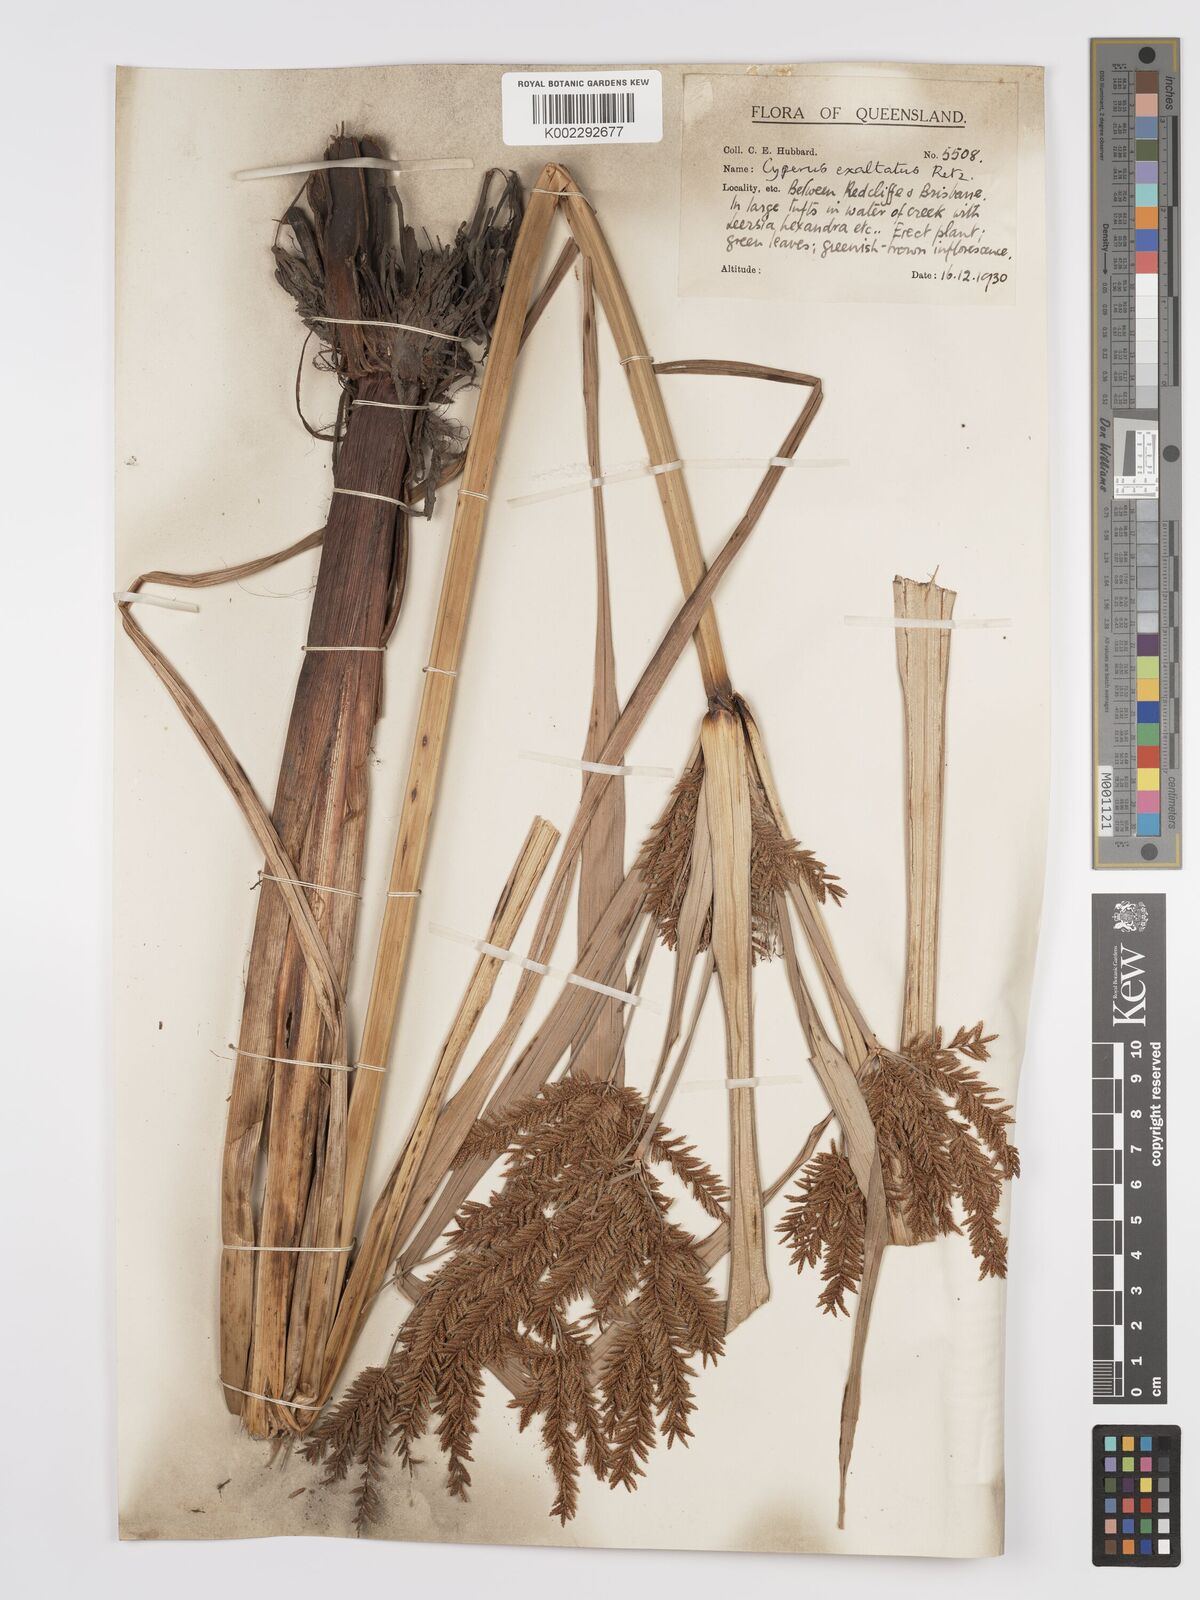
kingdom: Plantae
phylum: Tracheophyta
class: Liliopsida
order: Poales
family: Cyperaceae
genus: Cyperus
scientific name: Cyperus exaltatus
